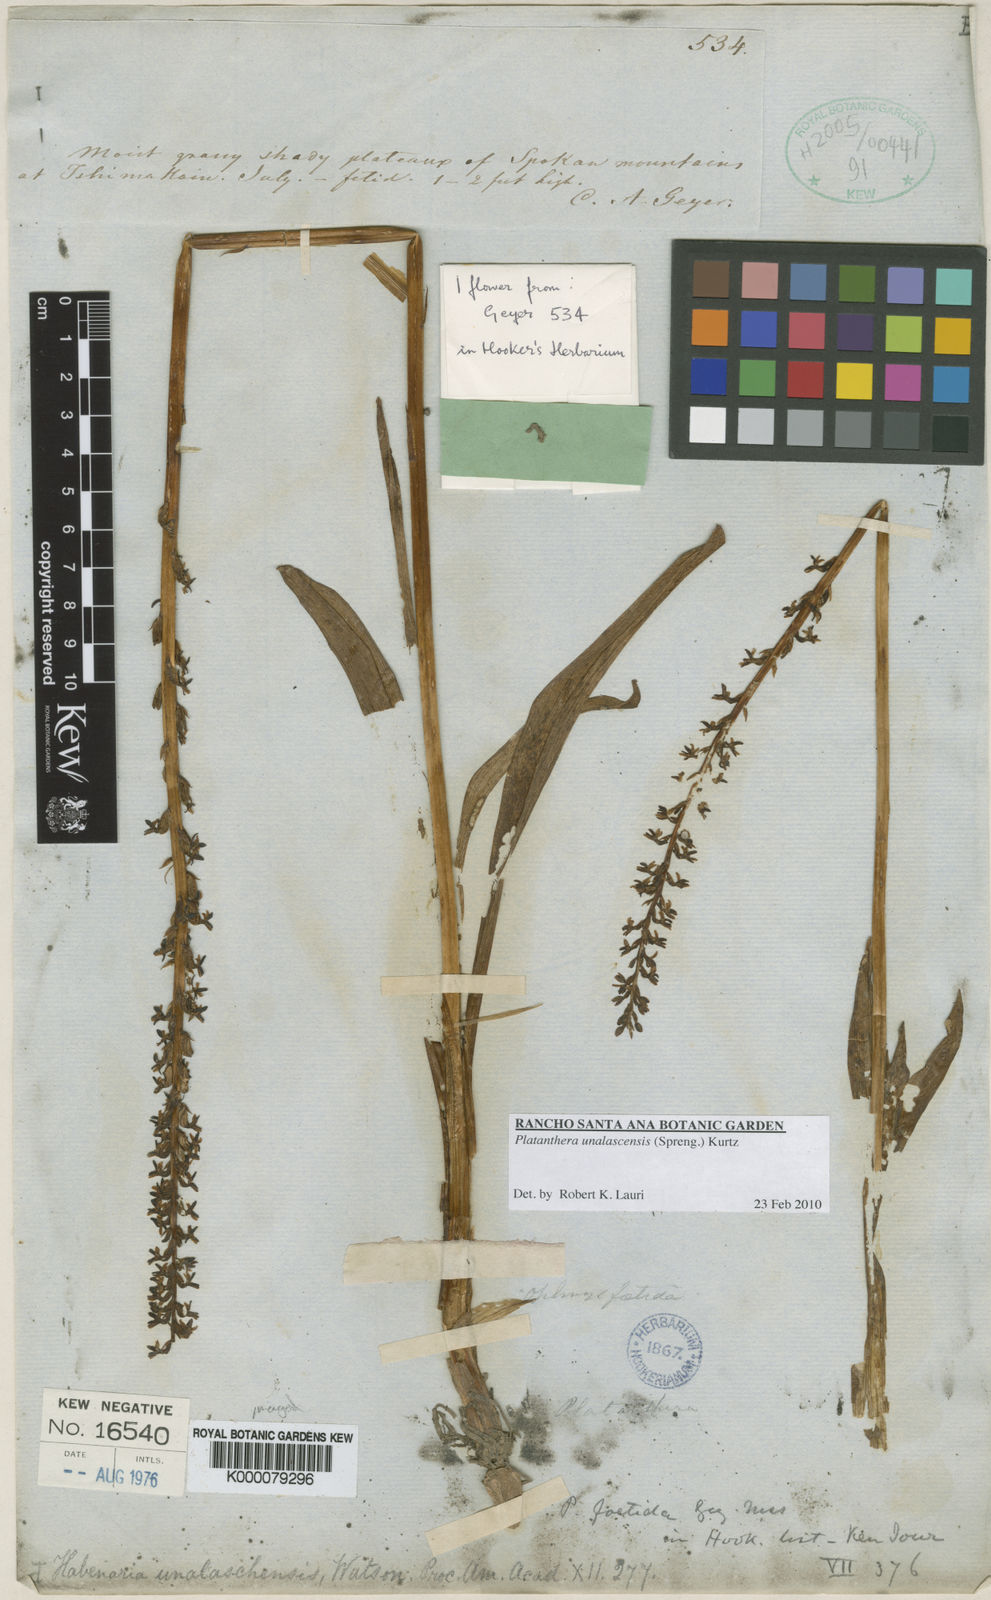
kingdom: Plantae
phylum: Tracheophyta
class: Liliopsida
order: Asparagales
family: Orchidaceae
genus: Platanthera
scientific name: Platanthera unalascensis
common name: Alaska bog orchid
